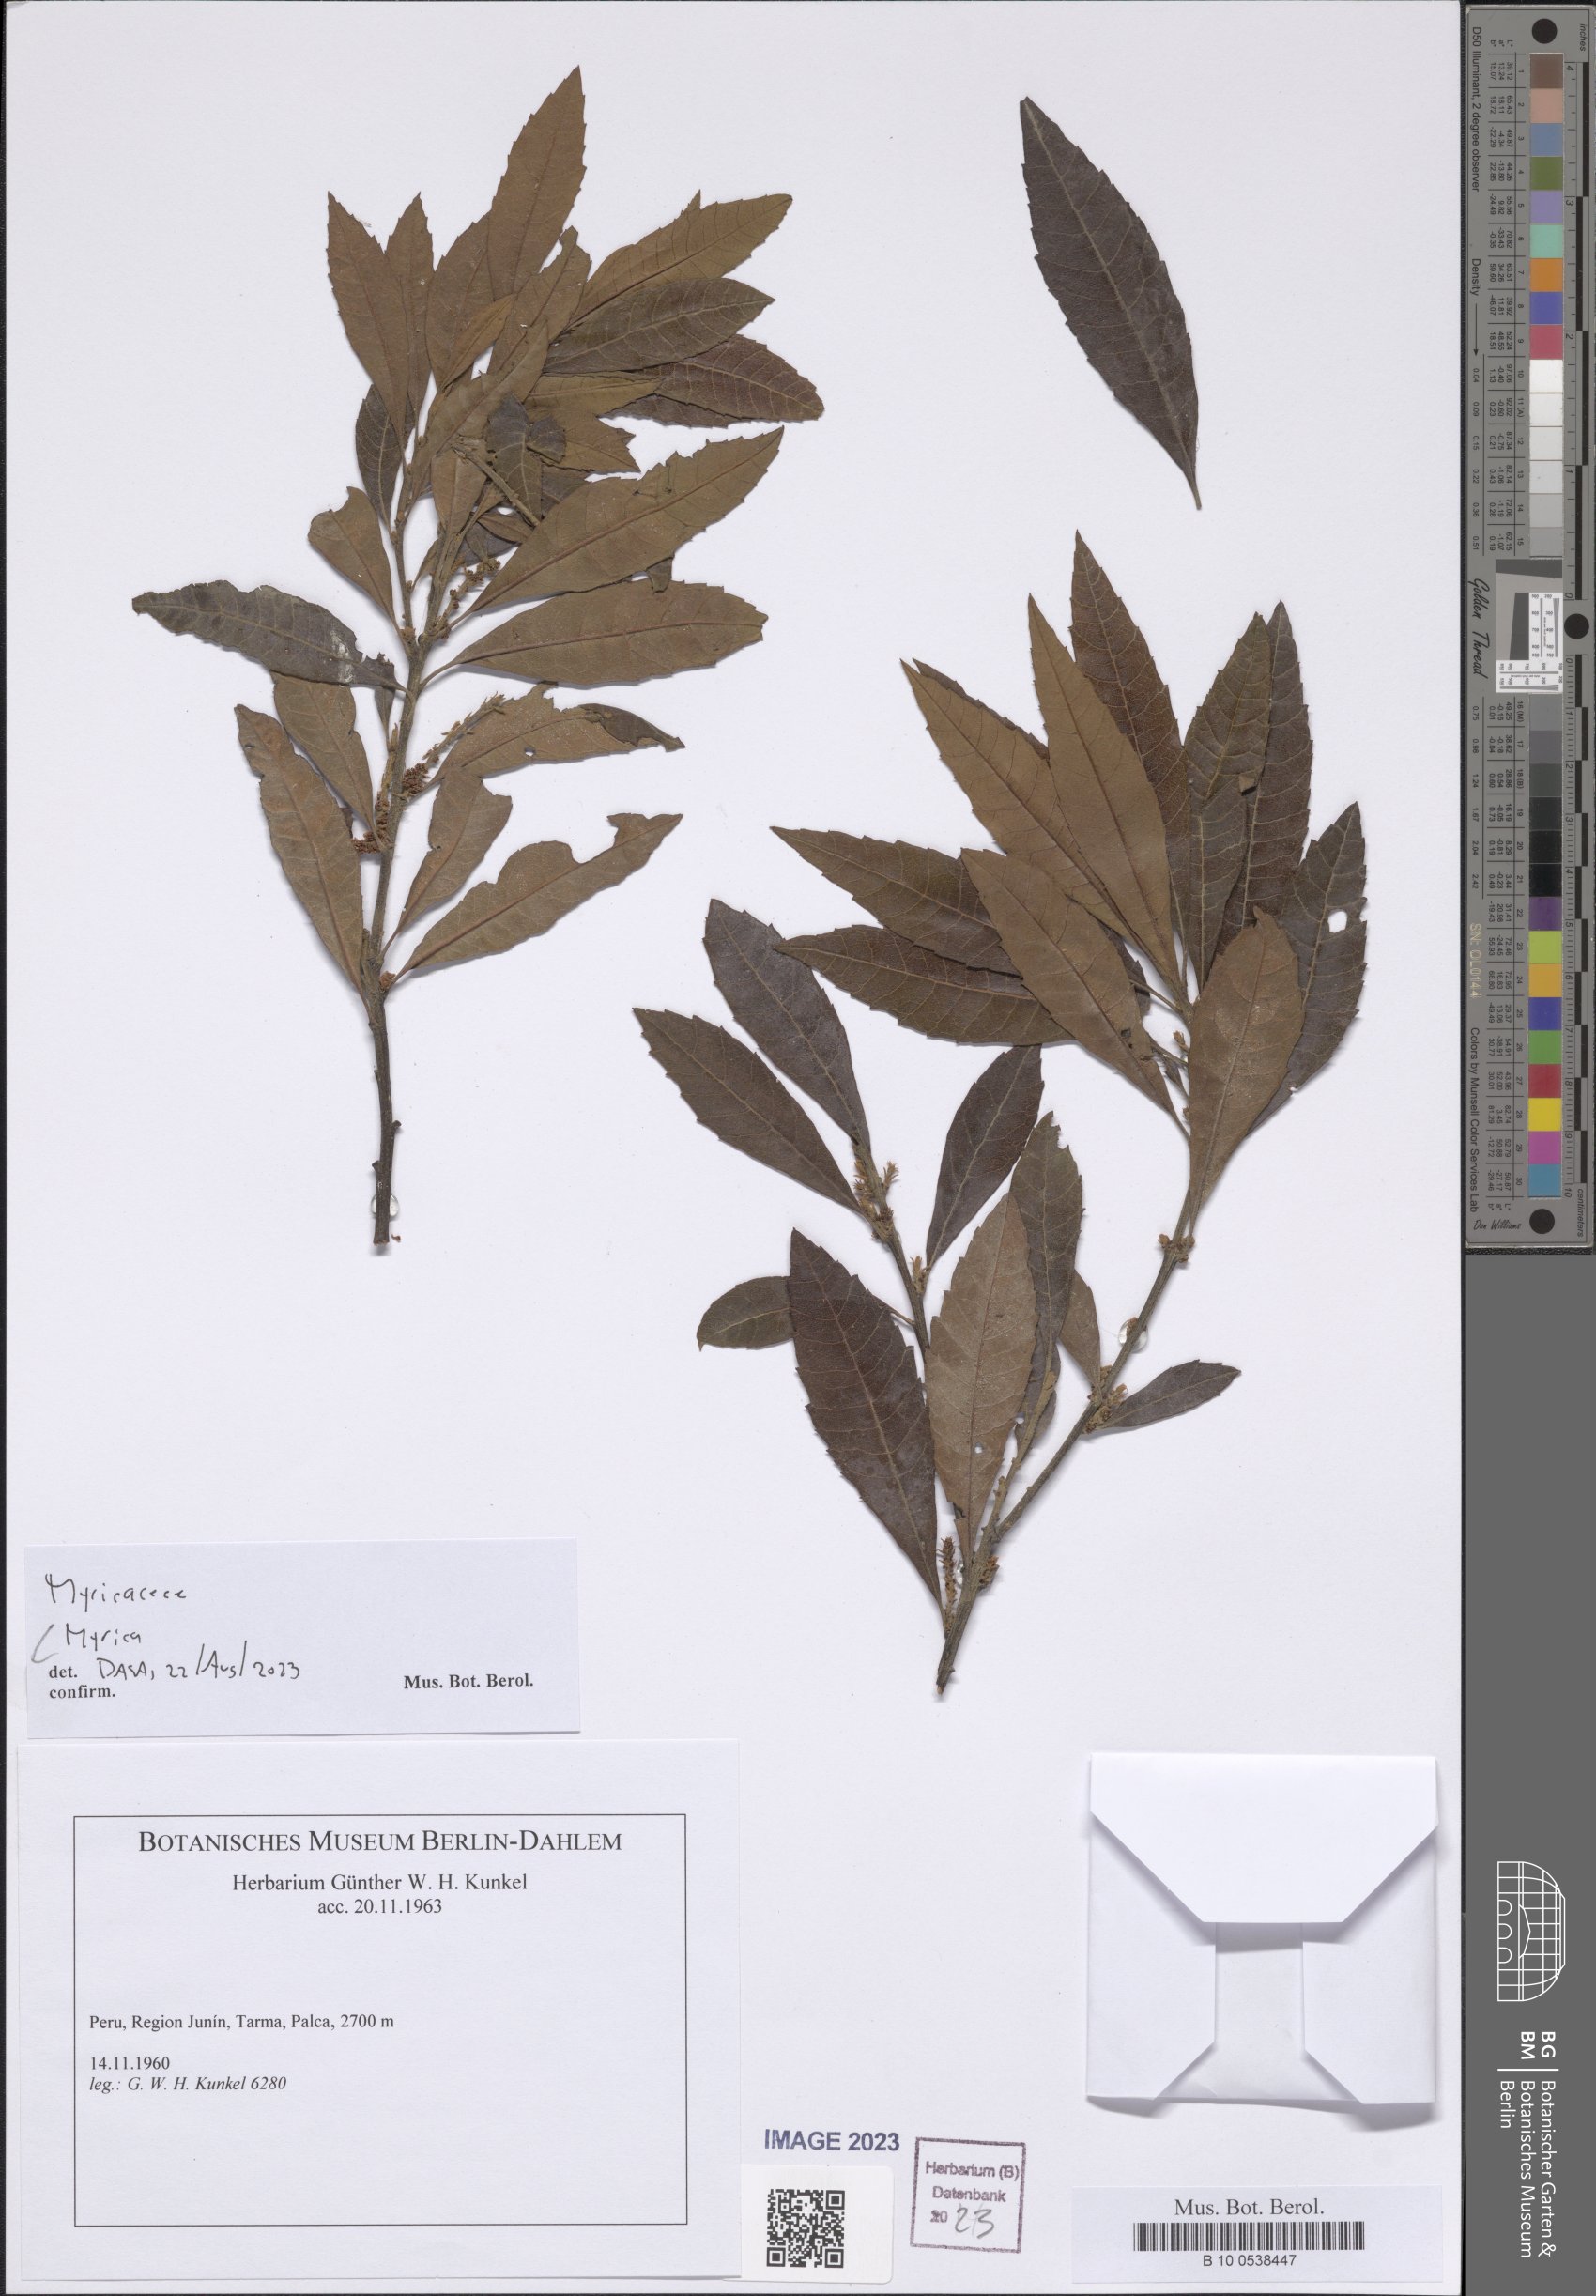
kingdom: Plantae
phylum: Tracheophyta
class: Magnoliopsida
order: Fagales
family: Myricaceae
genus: Myrica
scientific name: Myrica
